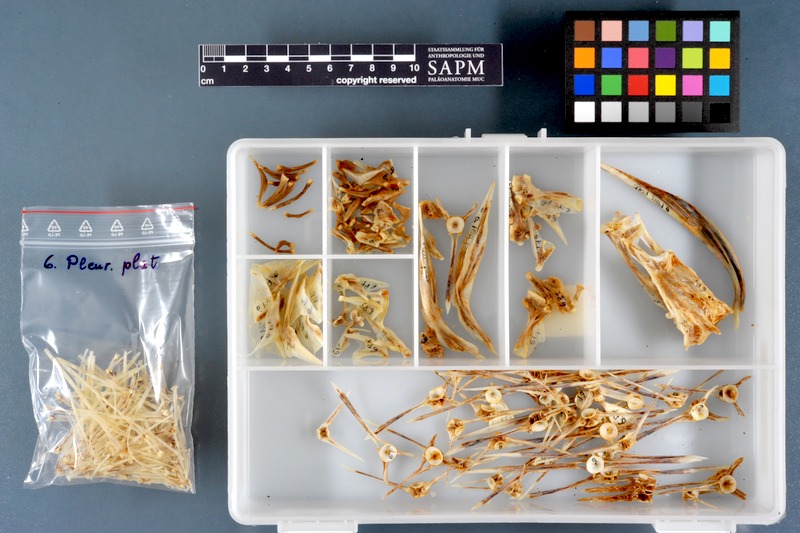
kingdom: Animalia
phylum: Chordata
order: Pleuronectiformes
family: Pleuronectidae
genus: Pleuronectes
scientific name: Pleuronectes platessa
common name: Plaice
